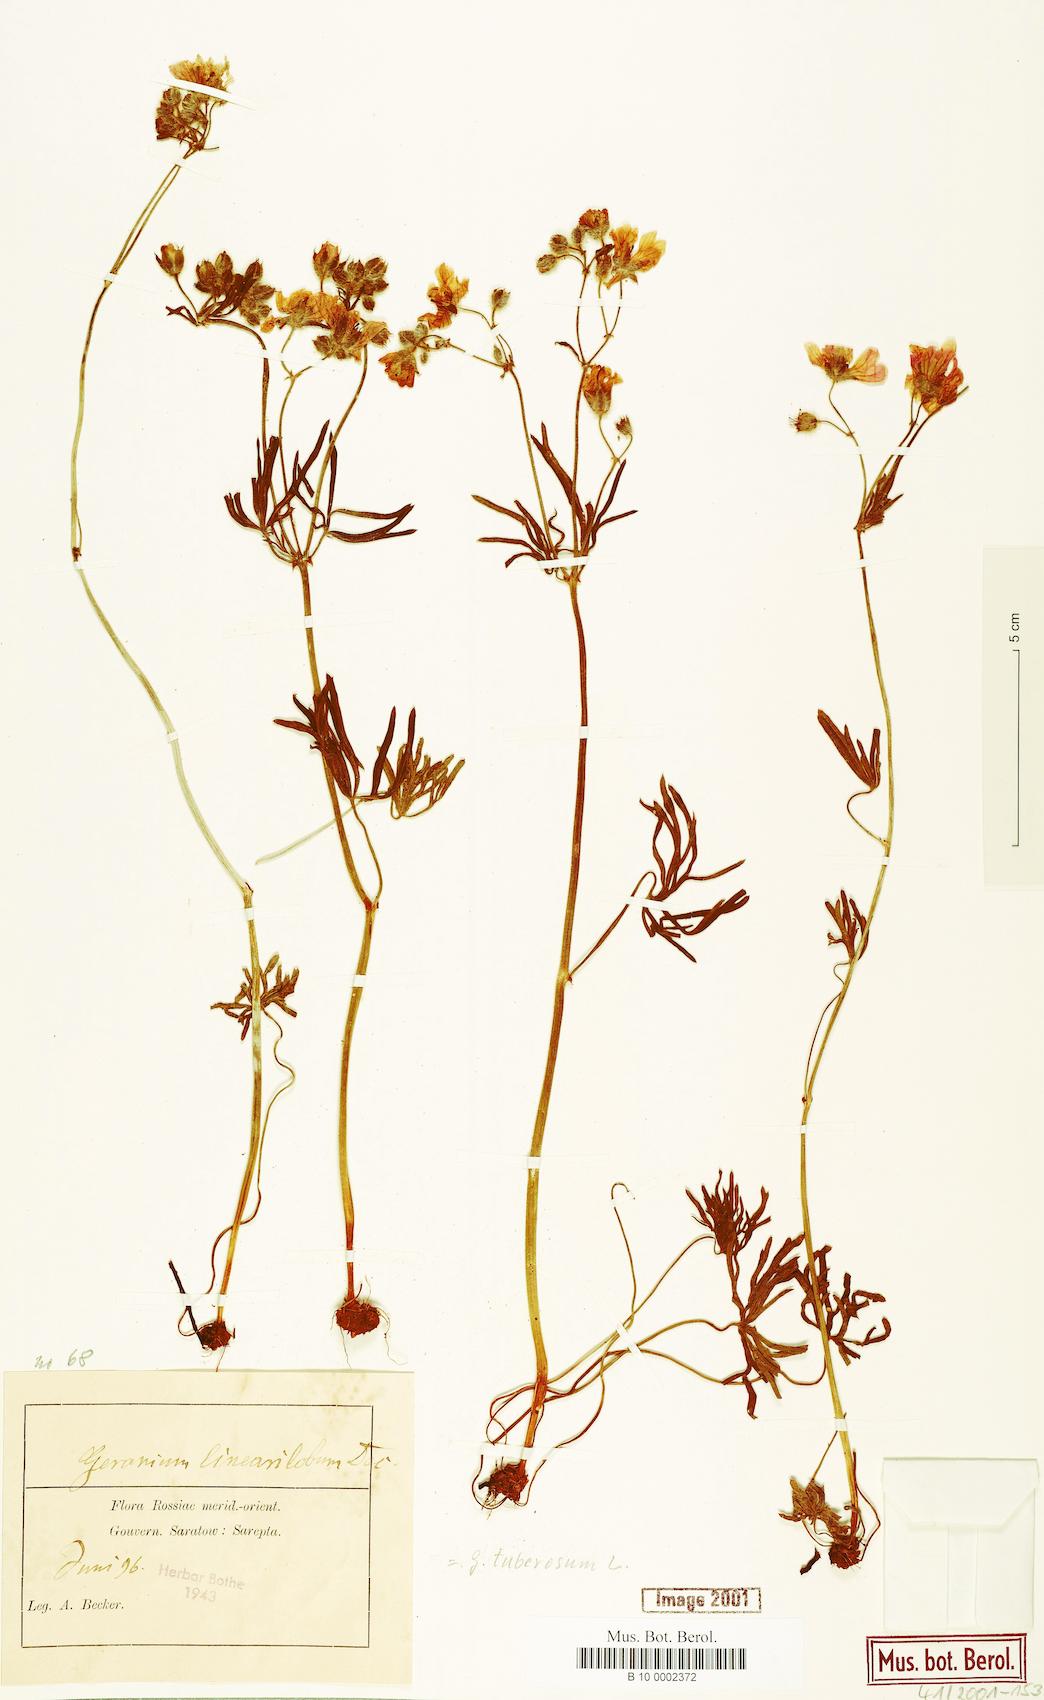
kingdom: Plantae
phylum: Tracheophyta
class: Magnoliopsida
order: Geraniales
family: Geraniaceae
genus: Geranium
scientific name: Geranium tuberosum
